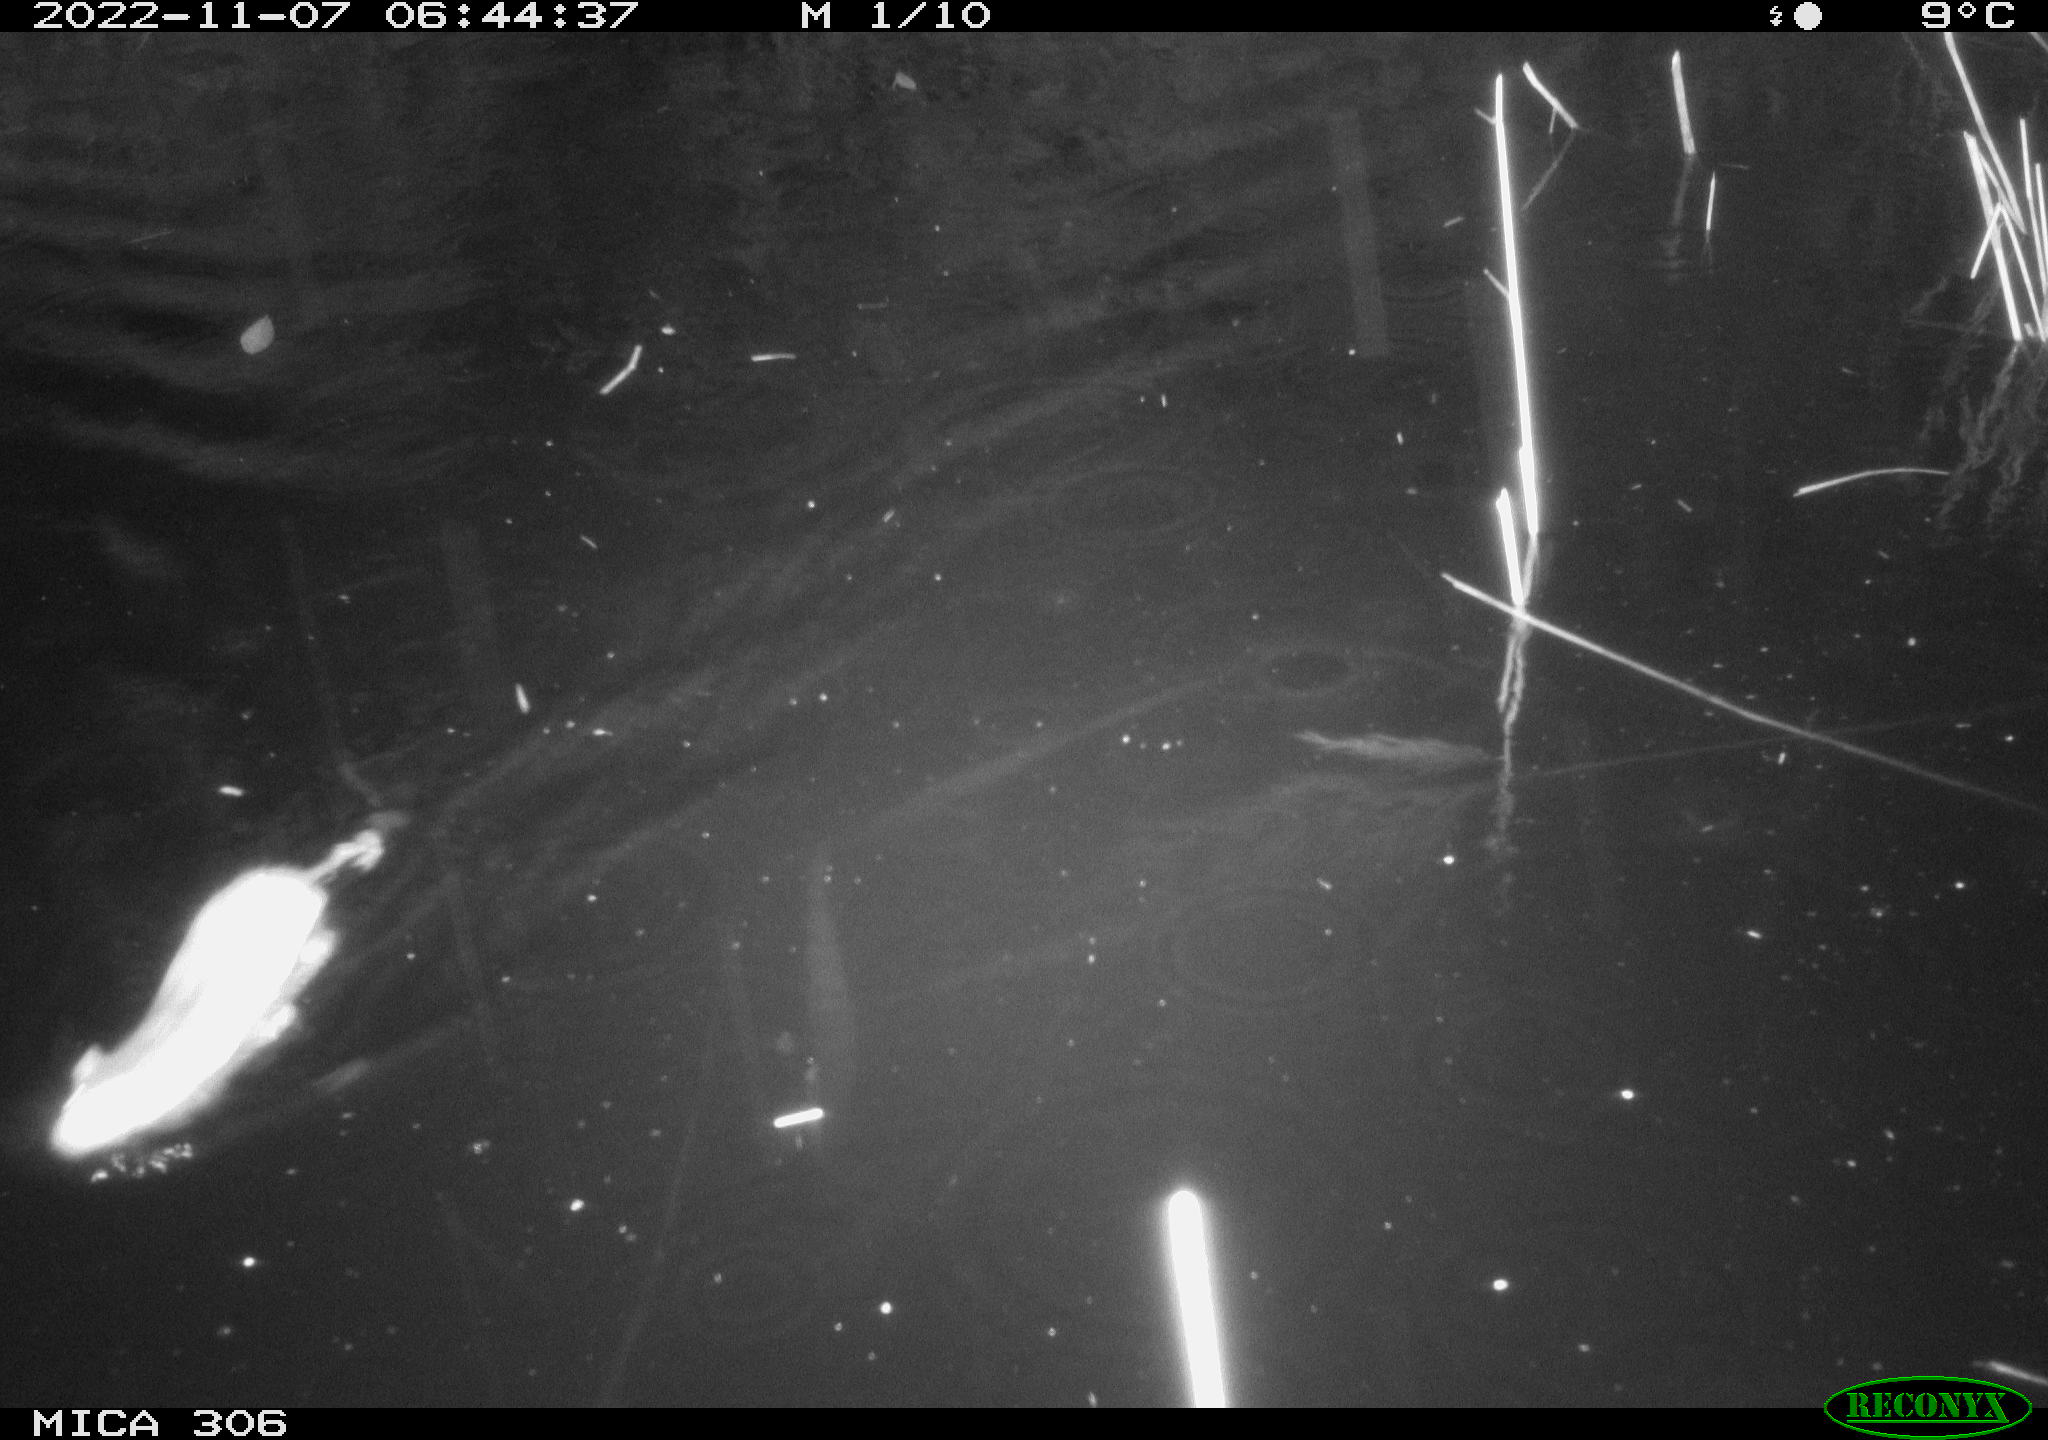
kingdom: Animalia
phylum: Chordata
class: Mammalia
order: Rodentia
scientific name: Rodentia
